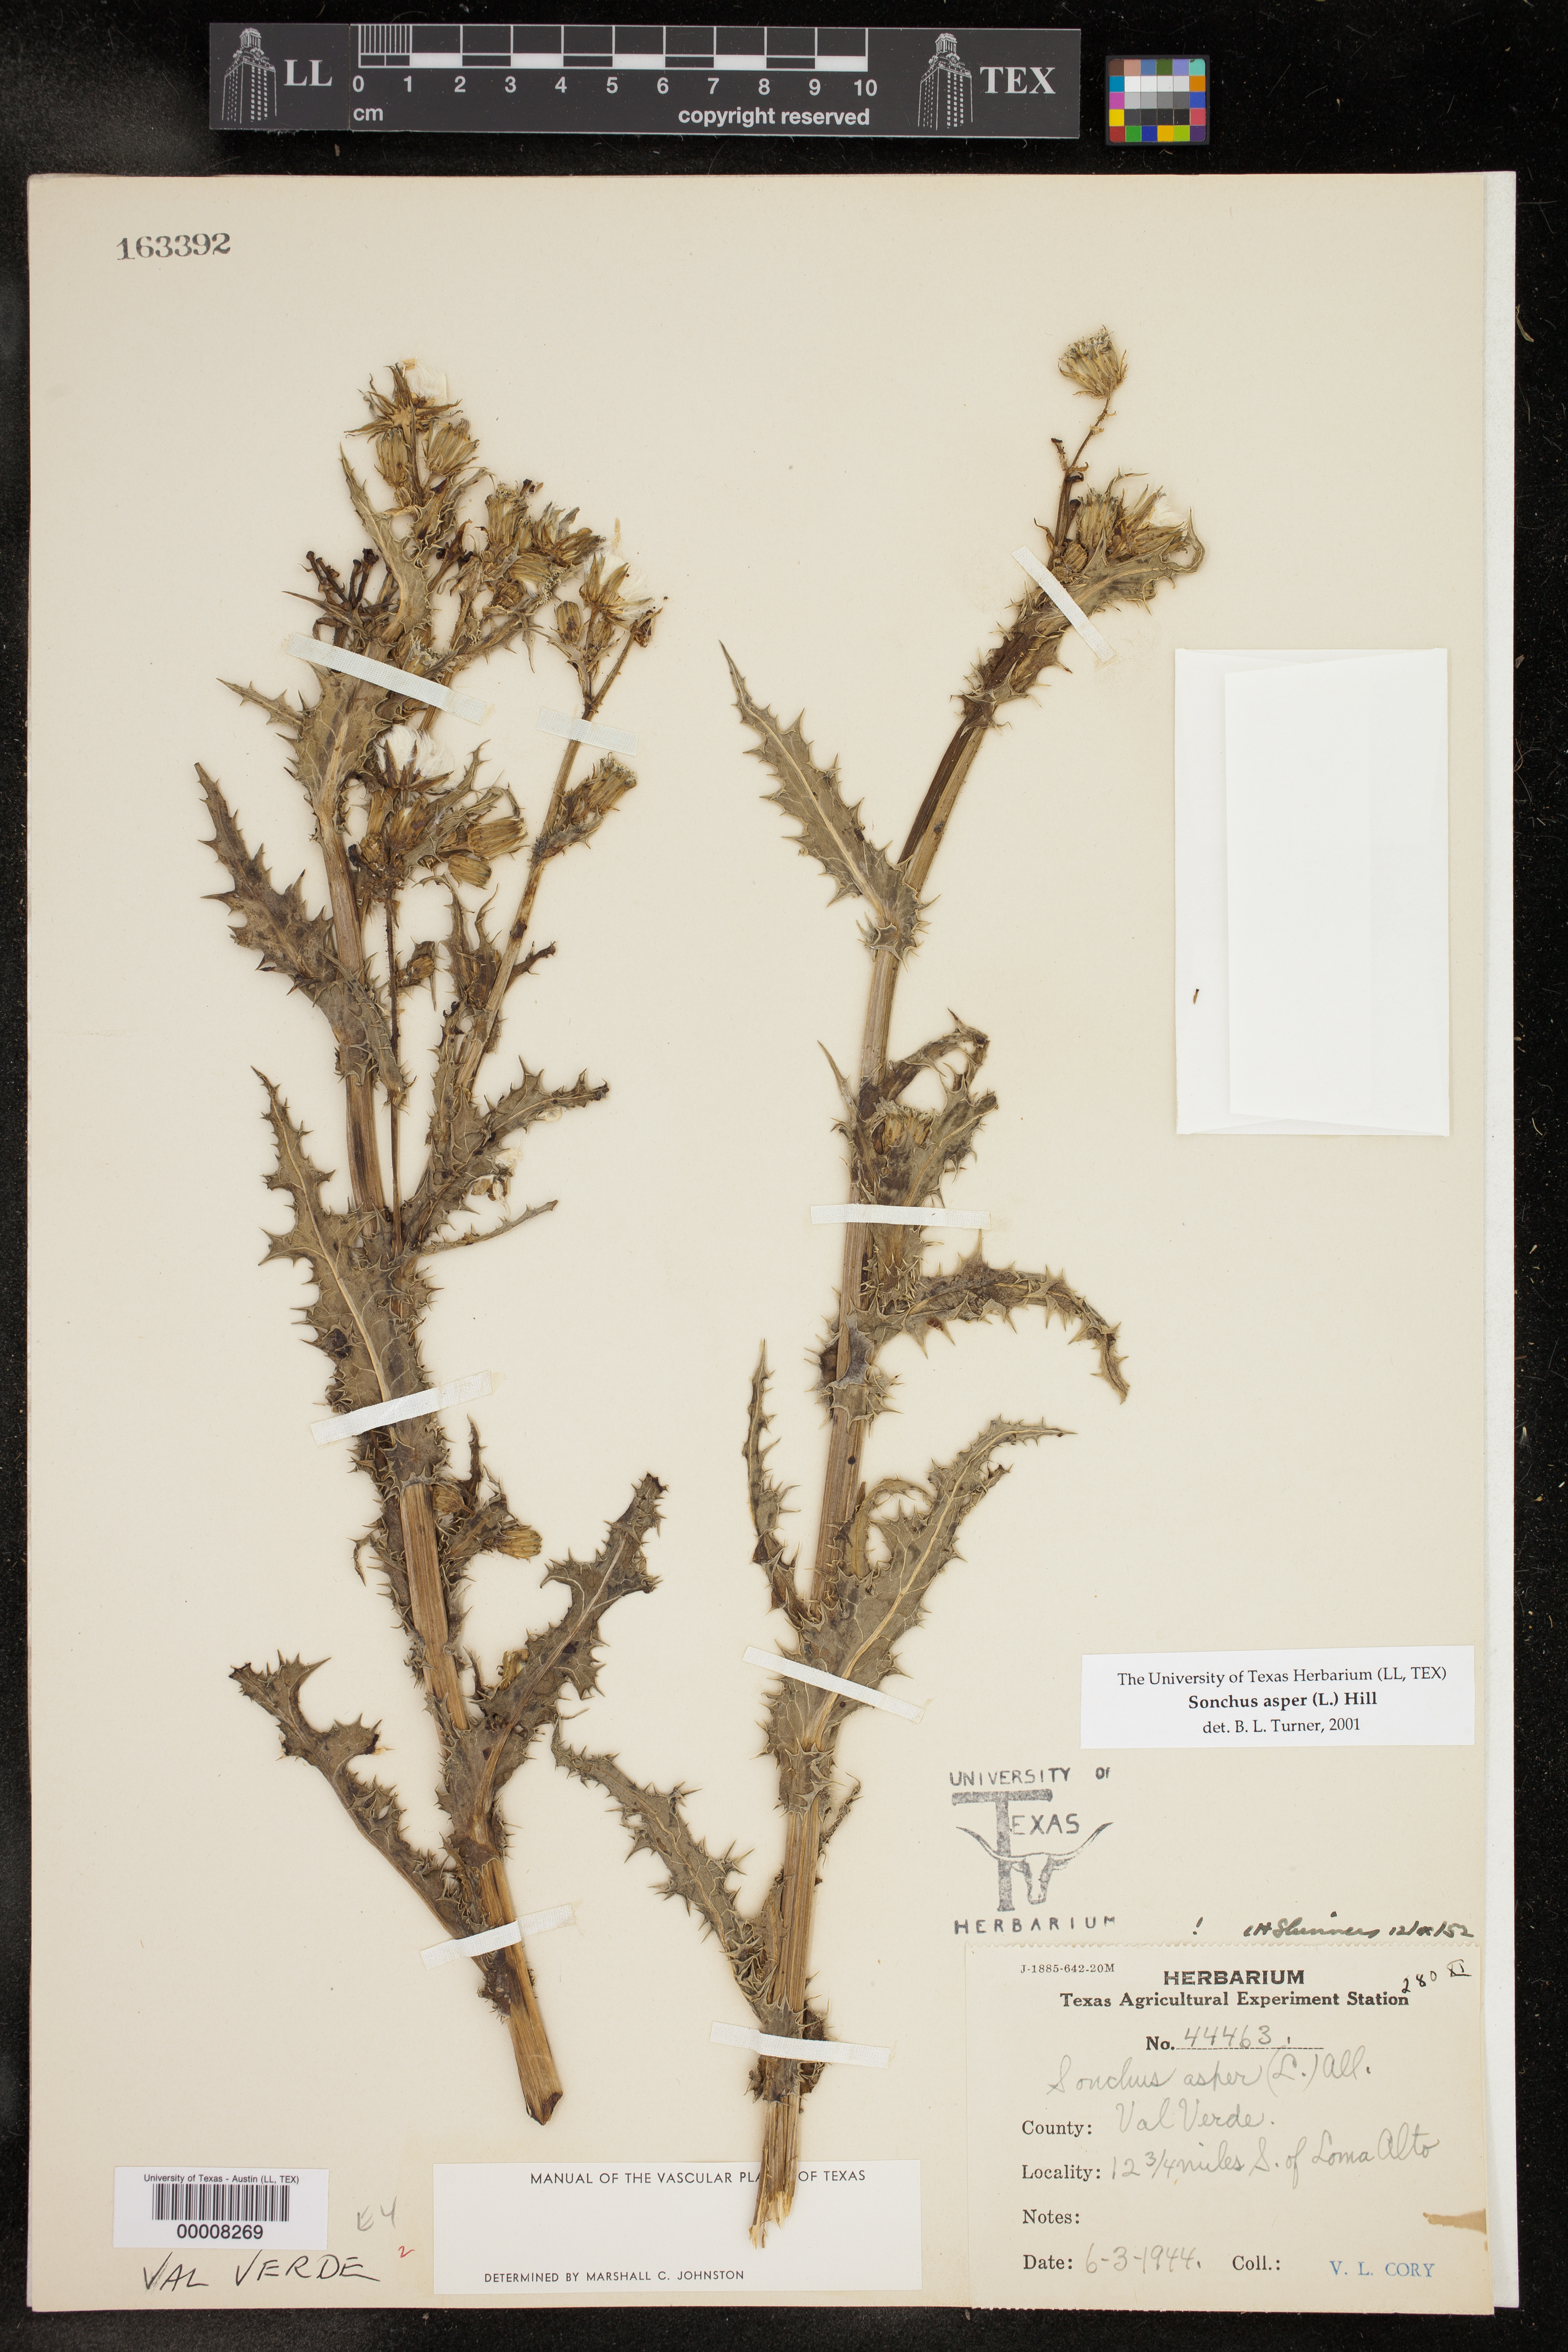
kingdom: Plantae
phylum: Tracheophyta
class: Magnoliopsida
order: Asterales
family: Asteraceae
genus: Sonchus
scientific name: Sonchus asper
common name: Prickly sow-thistle
